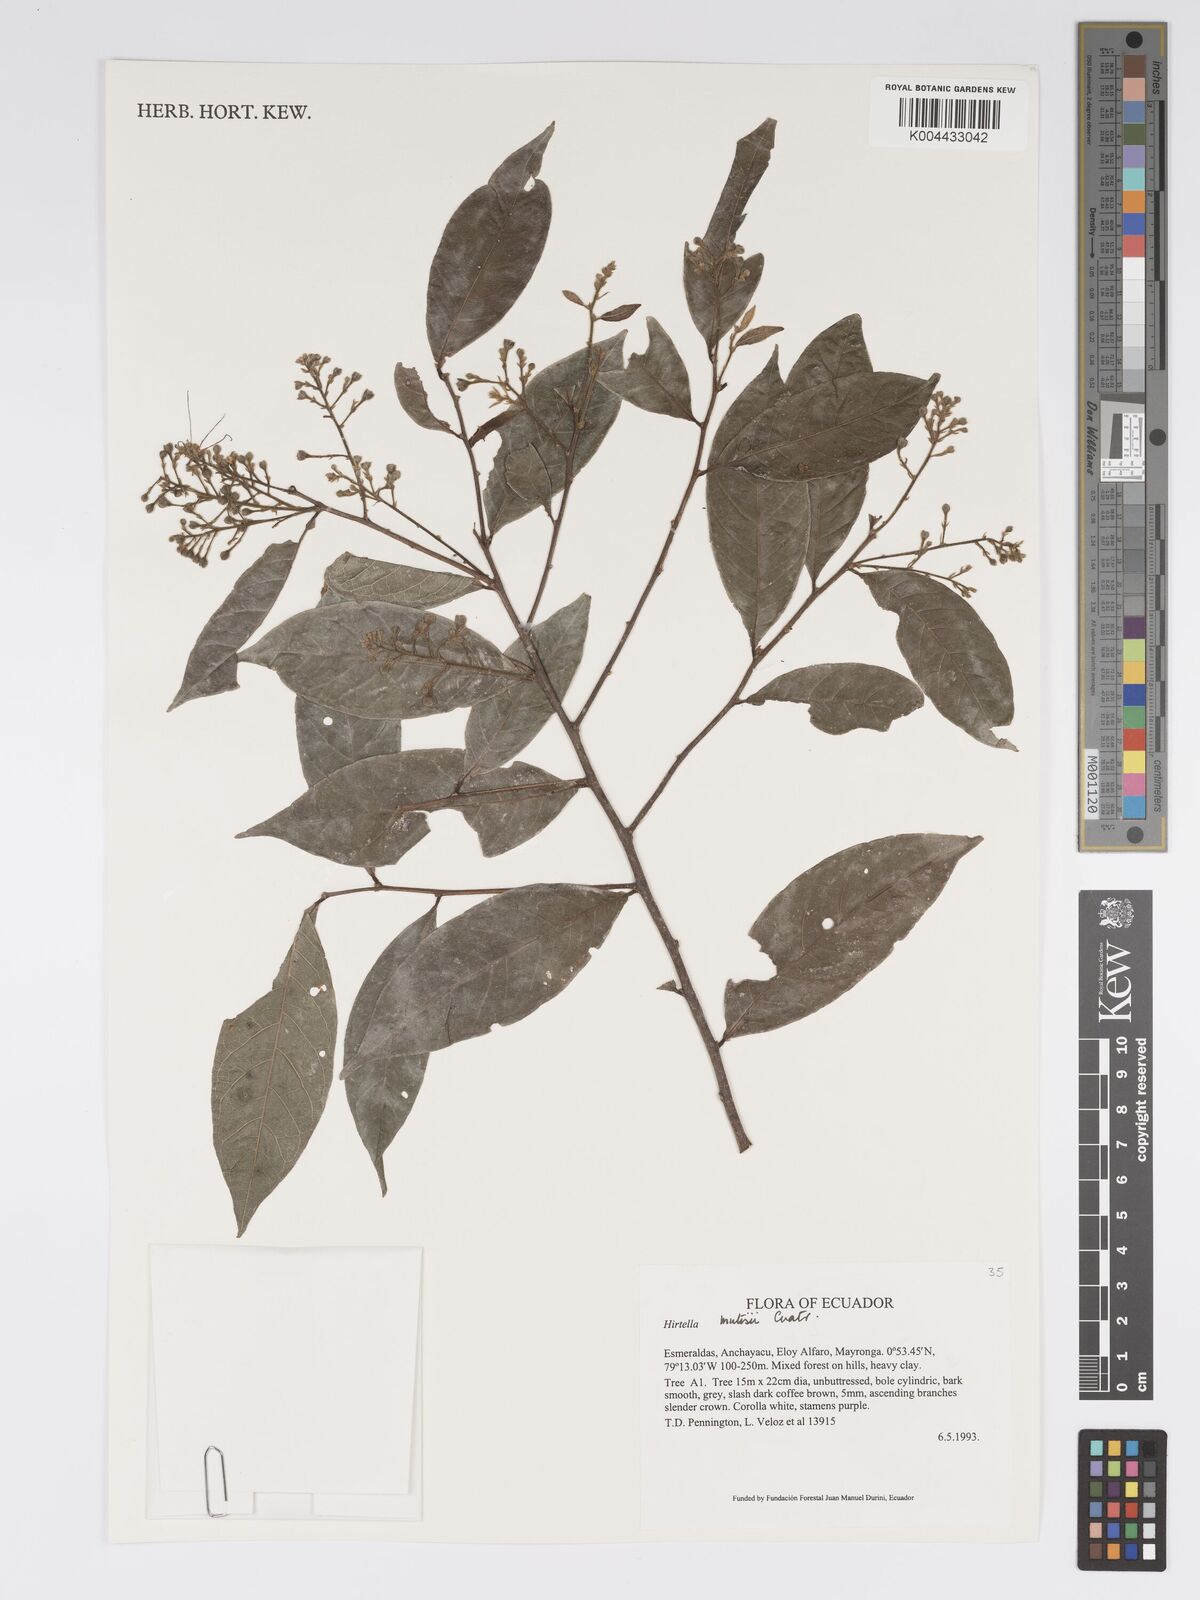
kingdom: Plantae
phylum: Tracheophyta
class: Magnoliopsida
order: Malpighiales
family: Chrysobalanaceae
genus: Hirtella
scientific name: Hirtella mutisii
